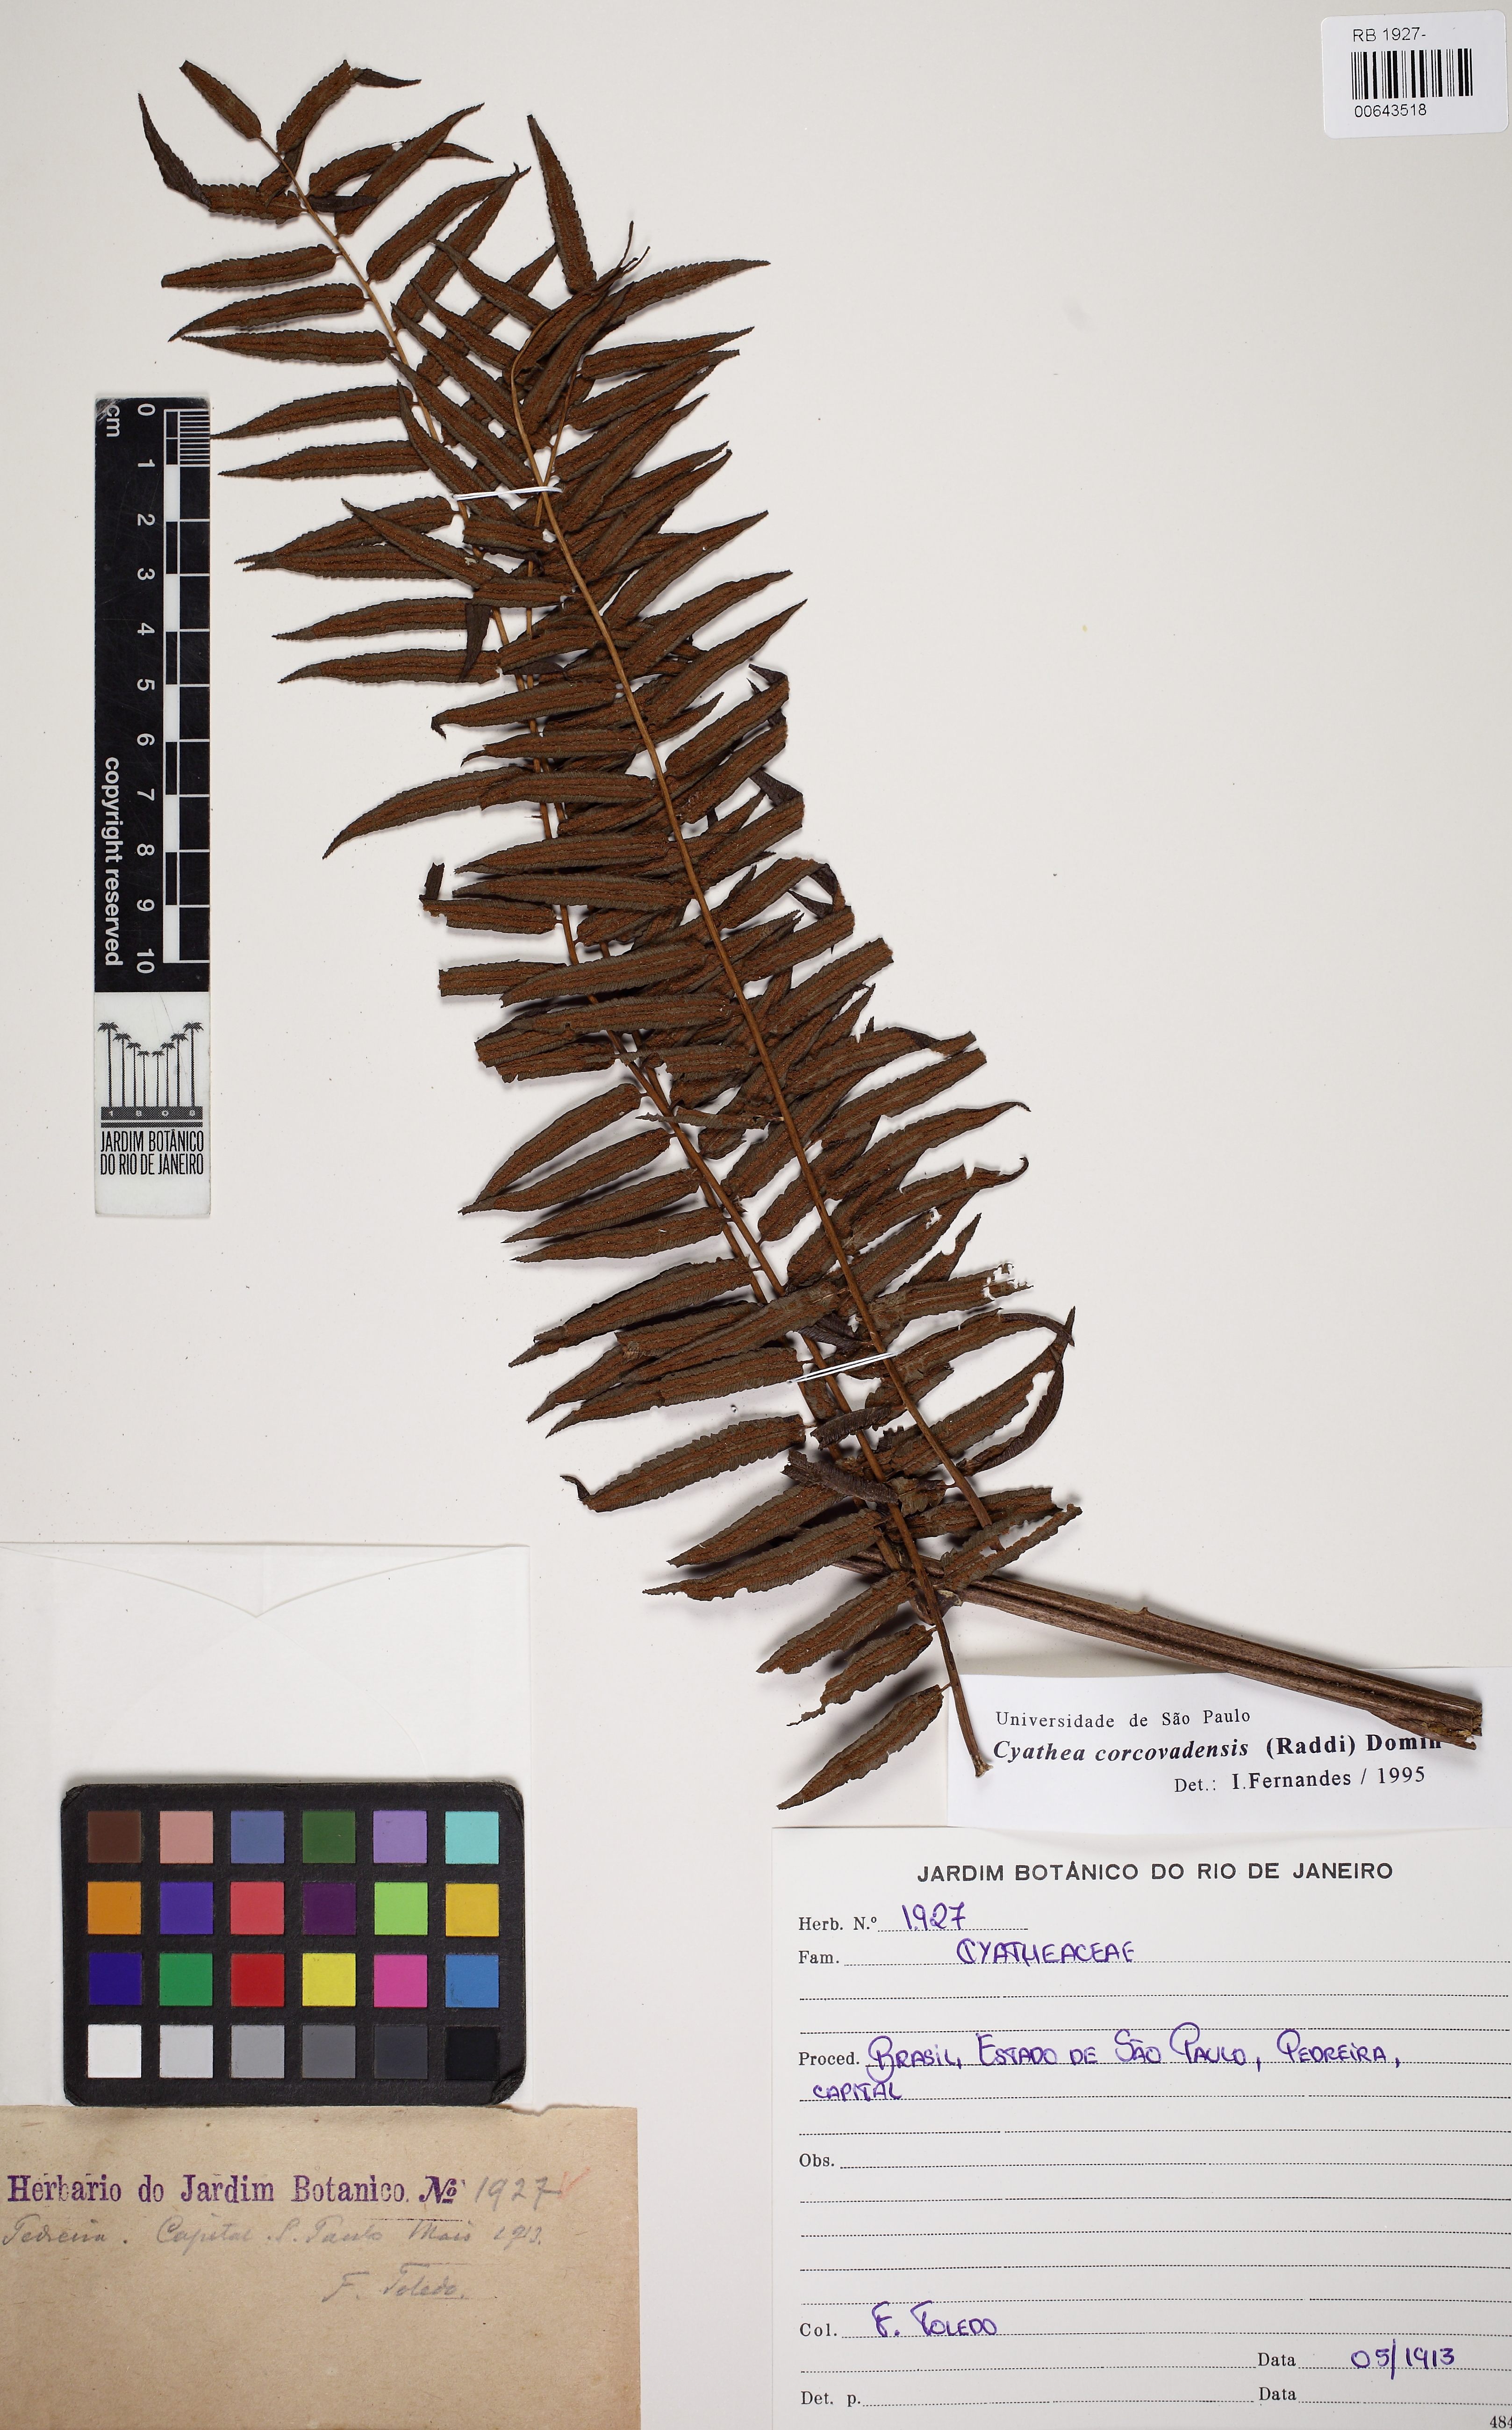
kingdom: Plantae
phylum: Tracheophyta
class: Polypodiopsida
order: Cyatheales
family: Cyatheaceae
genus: Cyathea
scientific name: Cyathea corcovadensis
